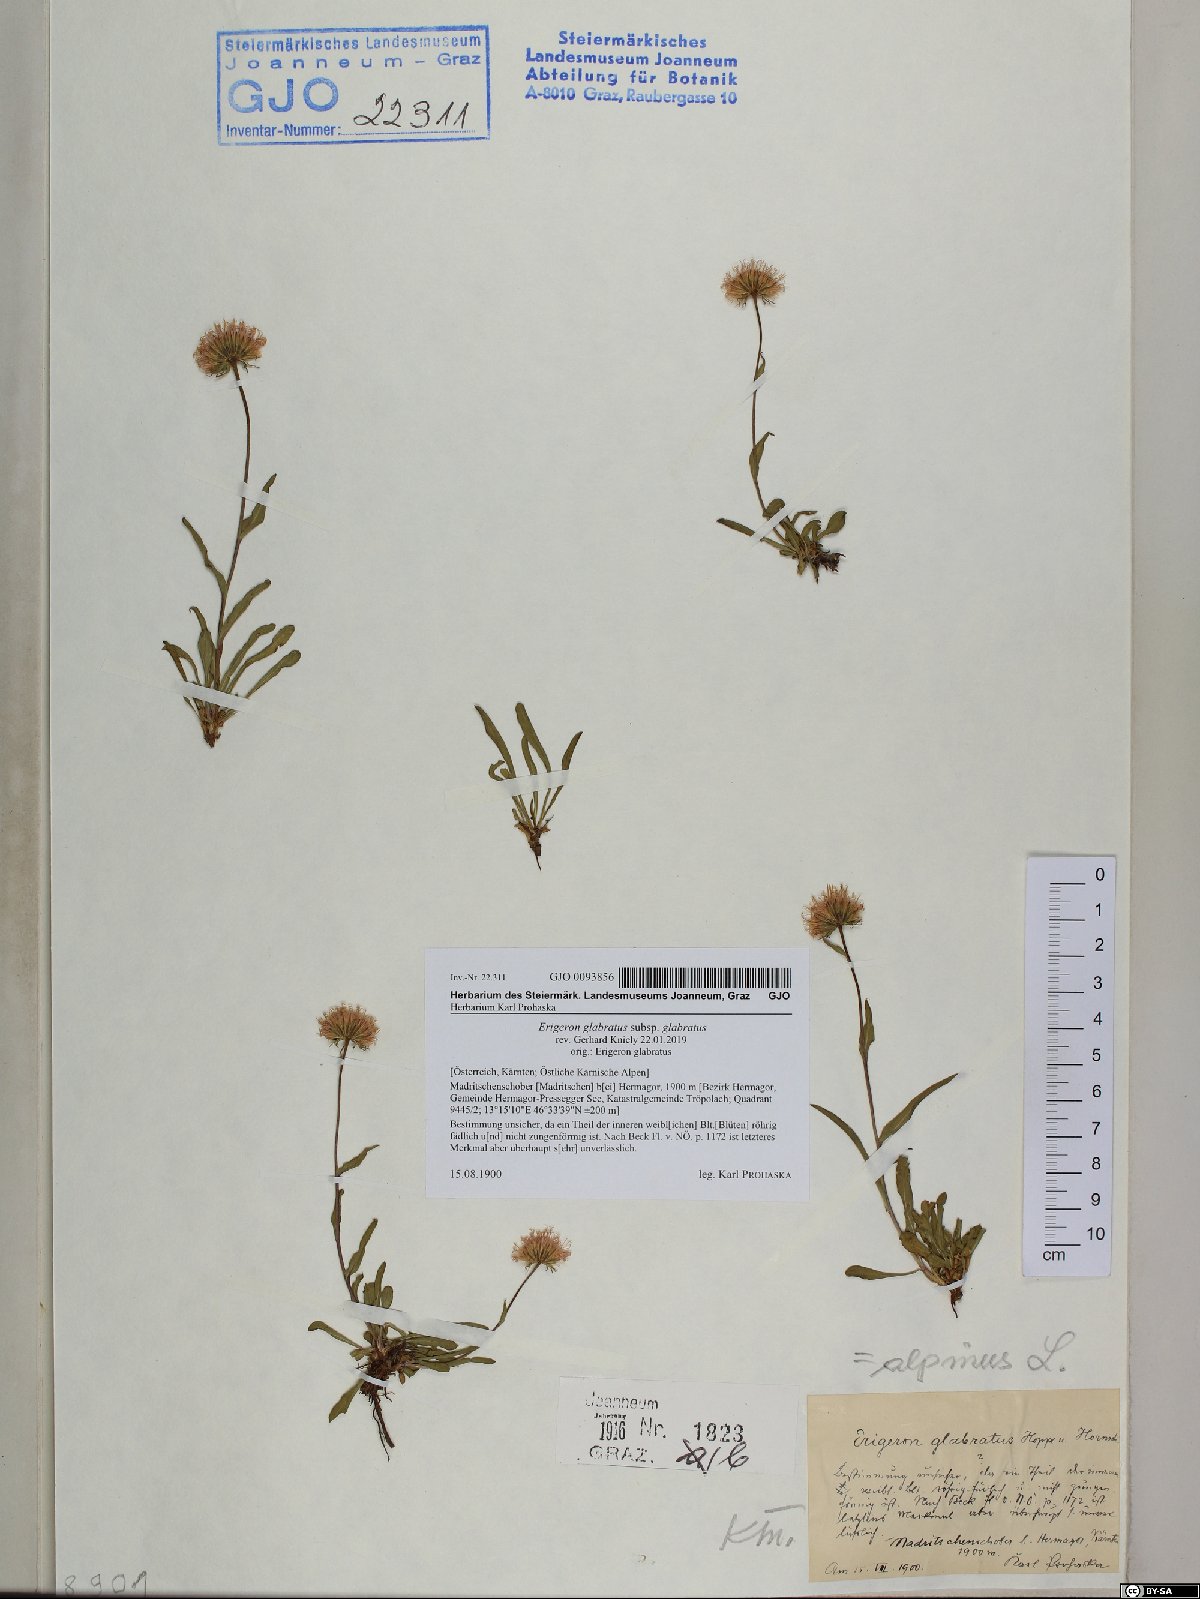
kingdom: Plantae
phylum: Tracheophyta
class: Magnoliopsida
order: Asterales
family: Asteraceae
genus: Erigeron
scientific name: Erigeron glabratus
